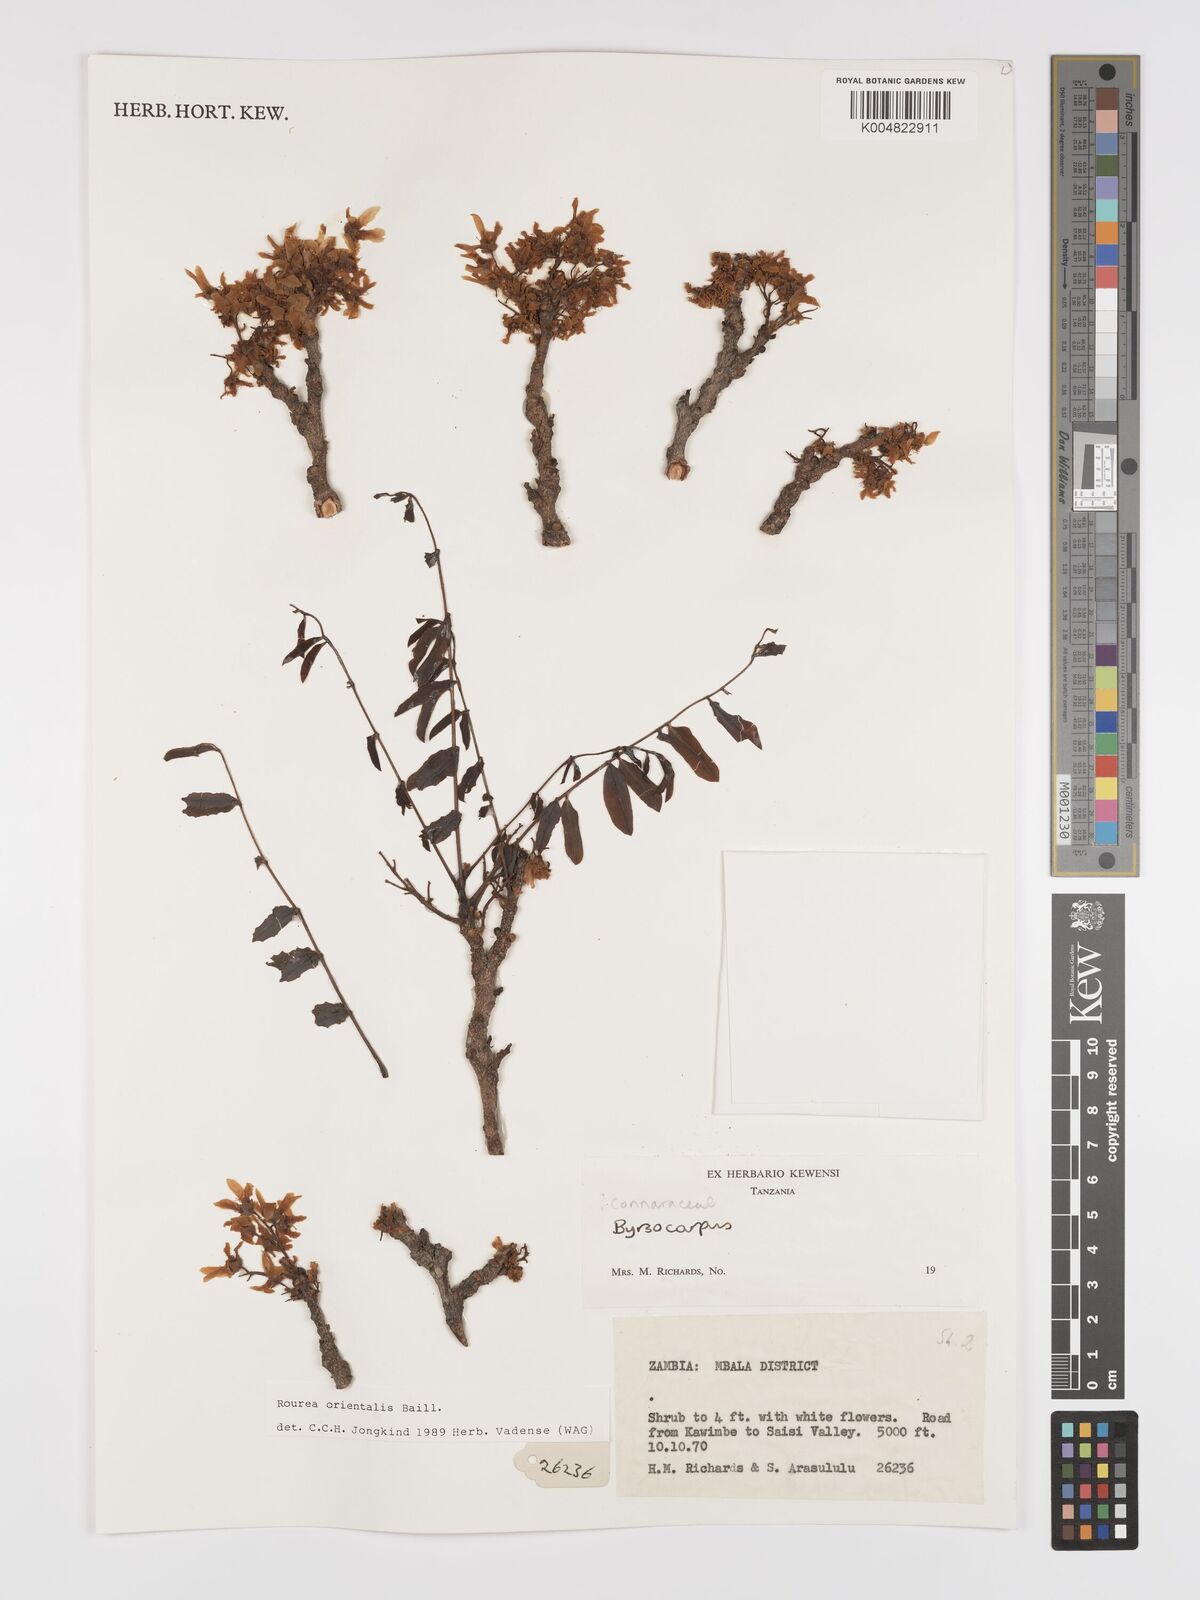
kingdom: Plantae
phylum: Tracheophyta
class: Magnoliopsida
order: Oxalidales
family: Connaraceae
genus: Rourea
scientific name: Rourea orientalis
